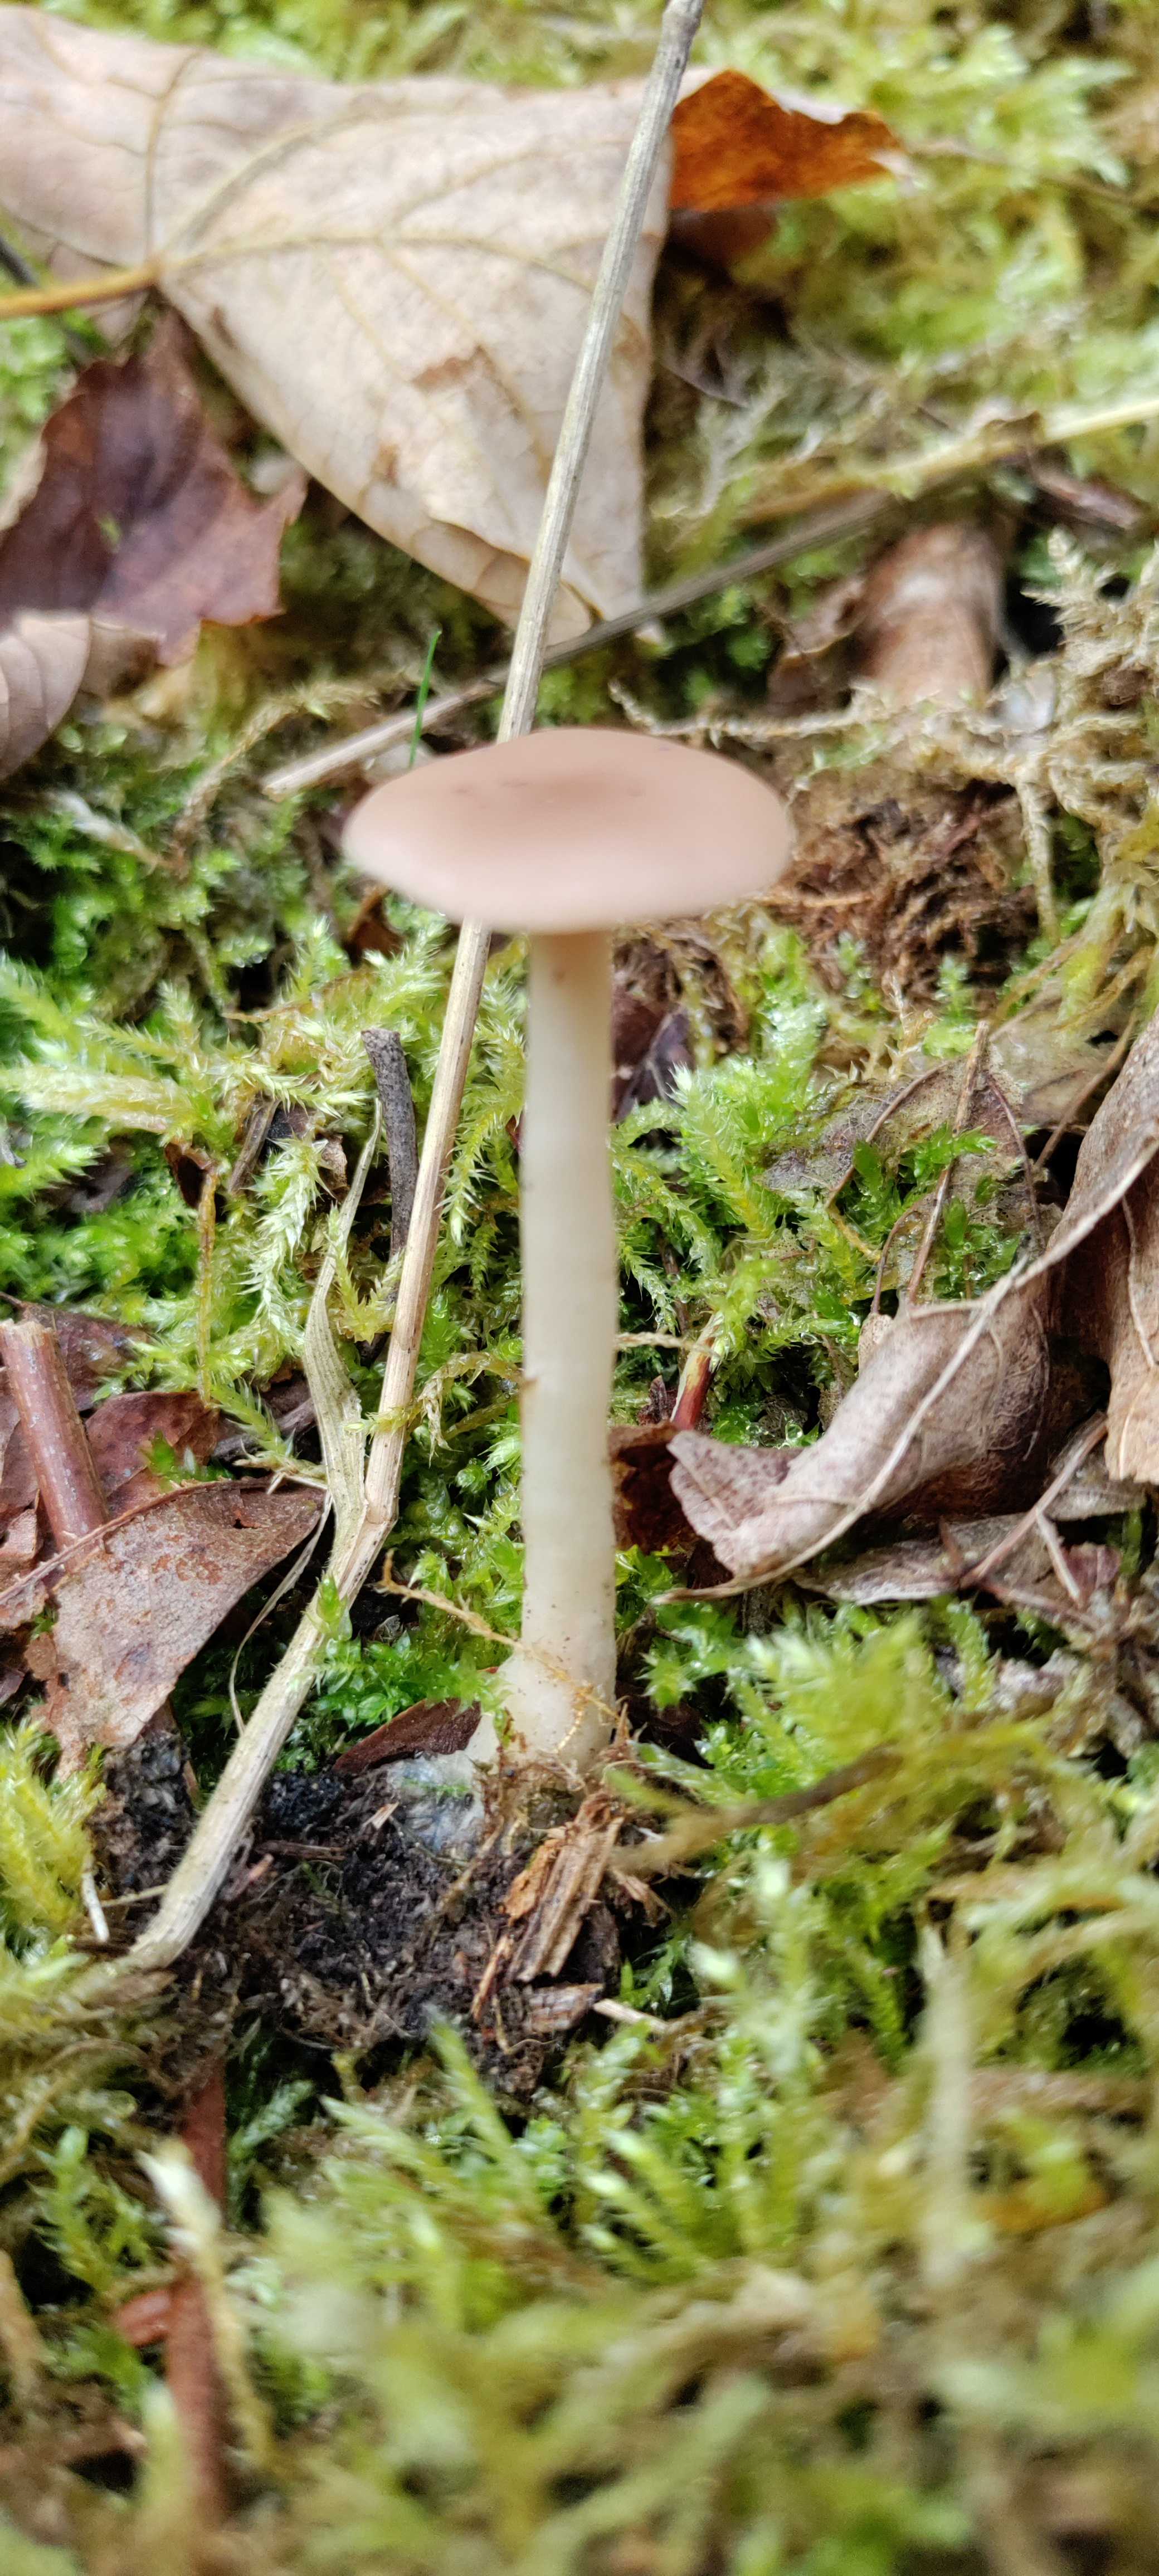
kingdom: Fungi
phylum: Basidiomycota
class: Agaricomycetes
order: Agaricales
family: Tricholomataceae
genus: Clitocybe
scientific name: Clitocybe
